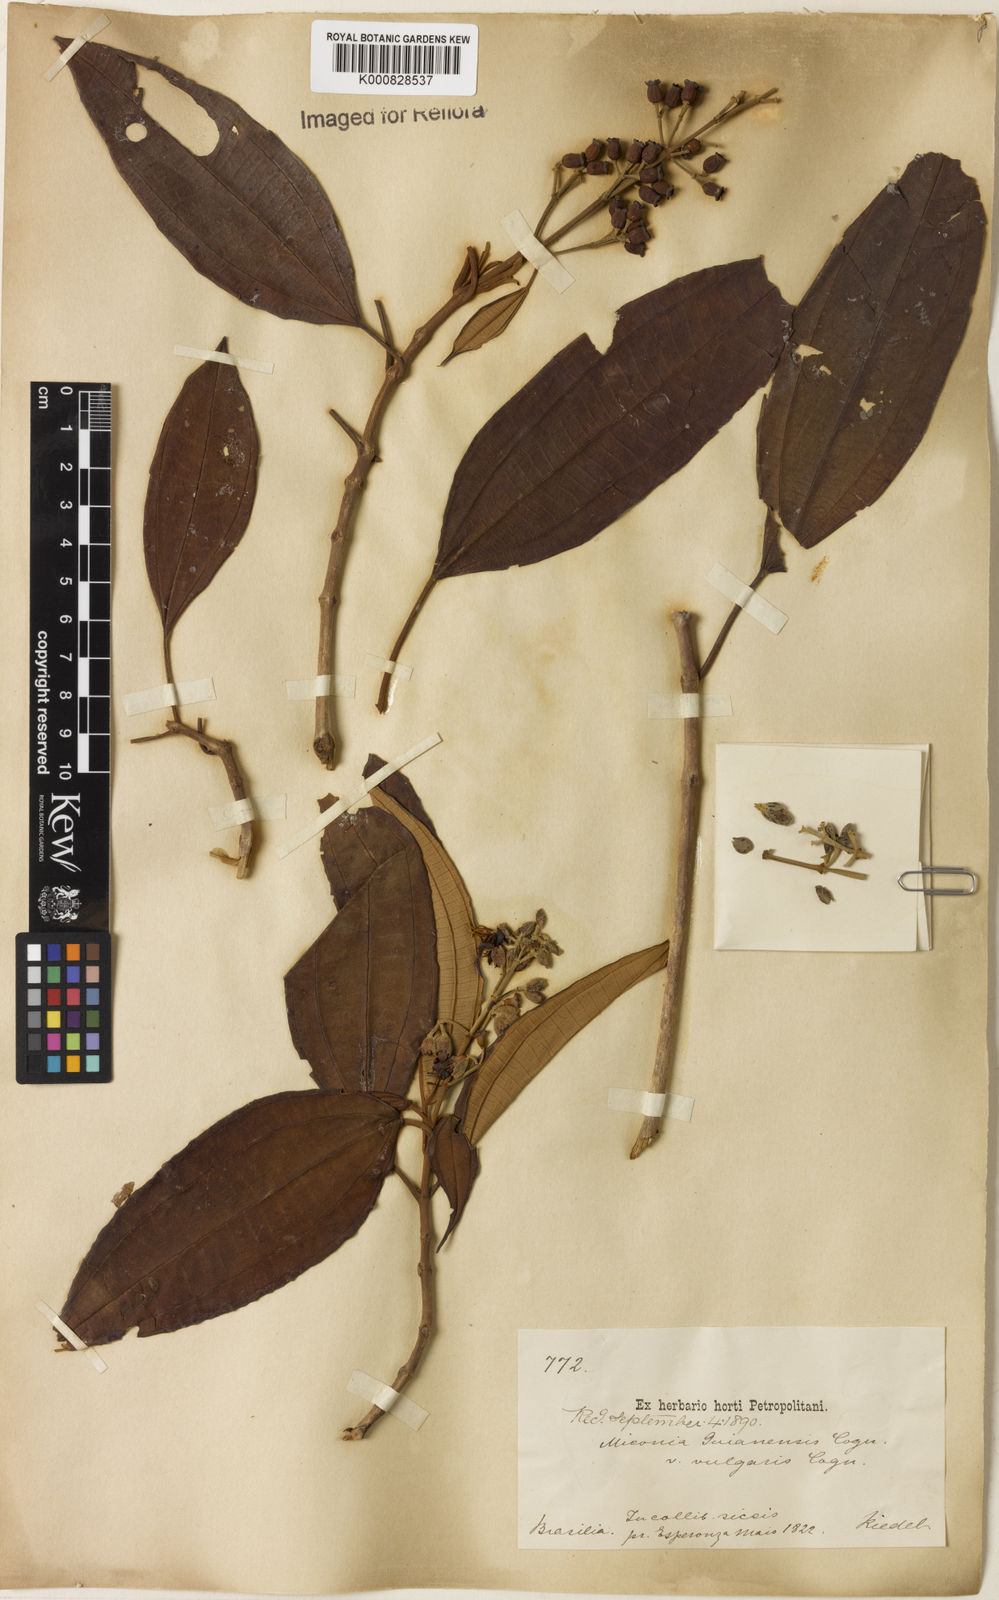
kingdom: Plantae
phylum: Tracheophyta
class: Magnoliopsida
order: Myrtales
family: Melastomataceae
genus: Miconia
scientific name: Miconia mirabilis
